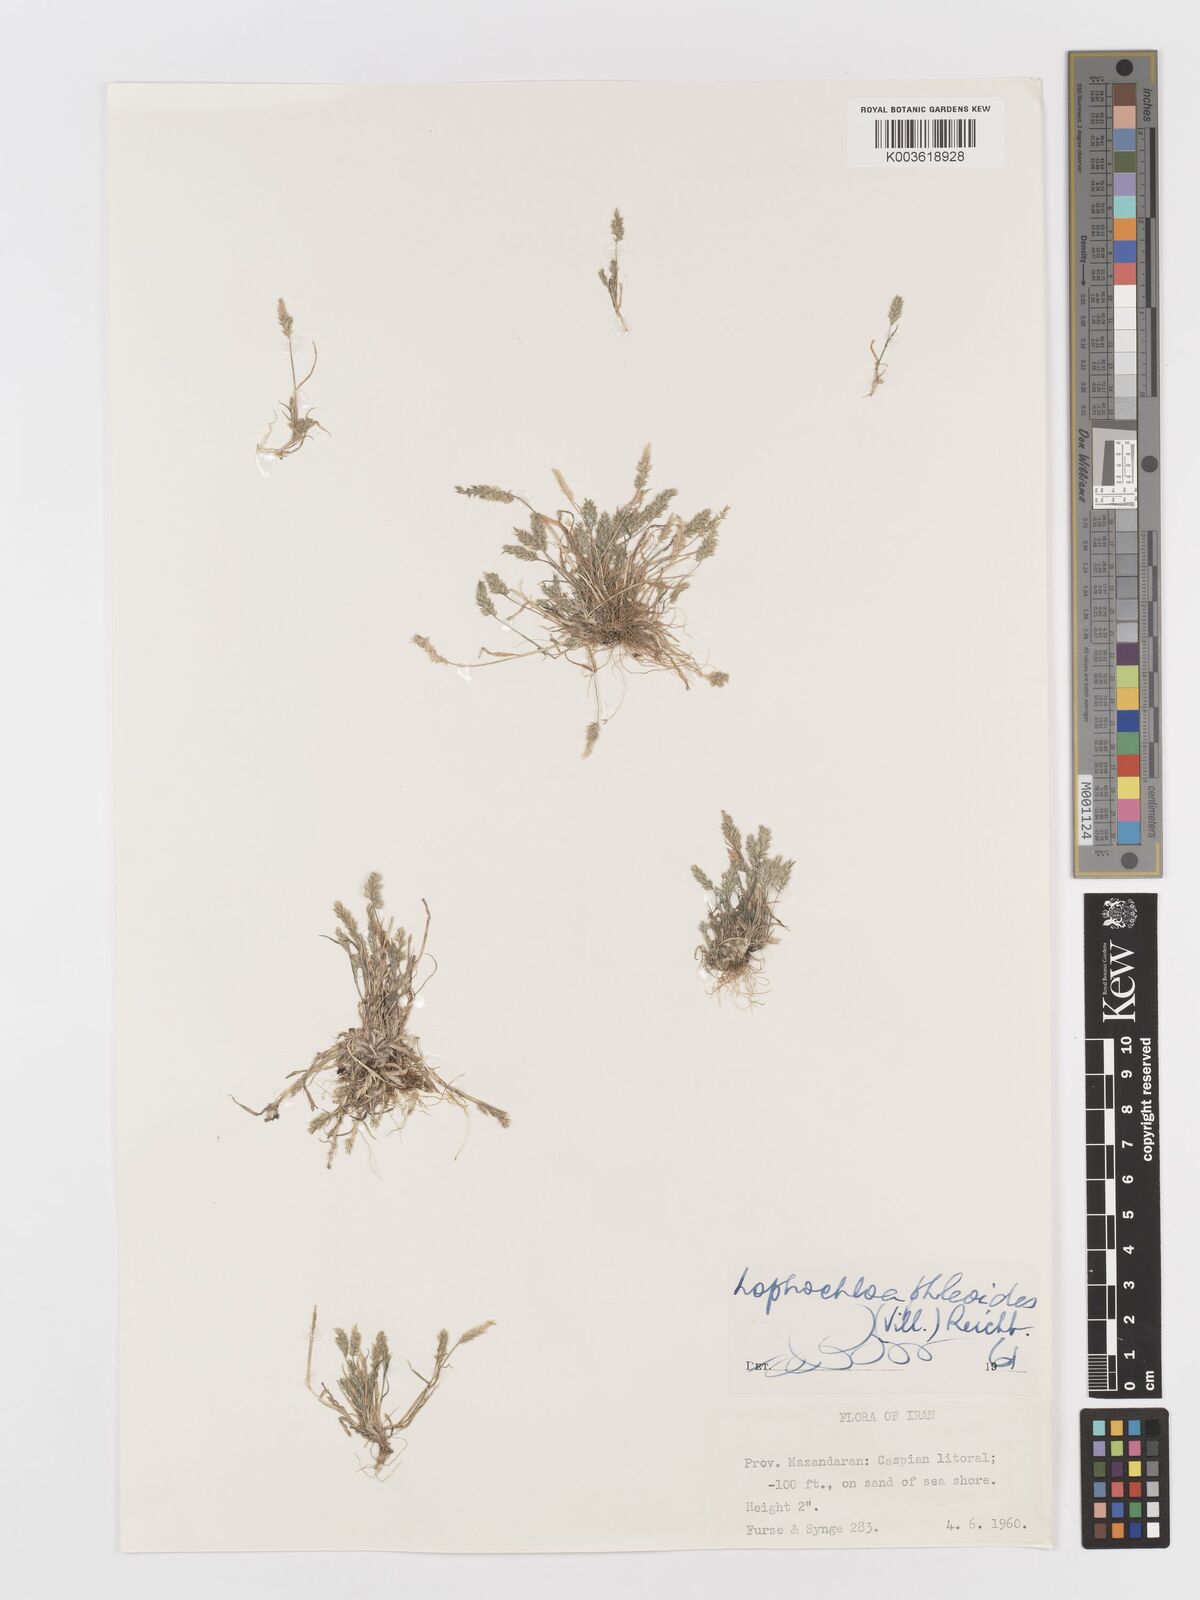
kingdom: Plantae
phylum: Tracheophyta
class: Liliopsida
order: Poales
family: Poaceae
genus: Rostraria
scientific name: Rostraria cristata
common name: Mediterranean hair-grass
